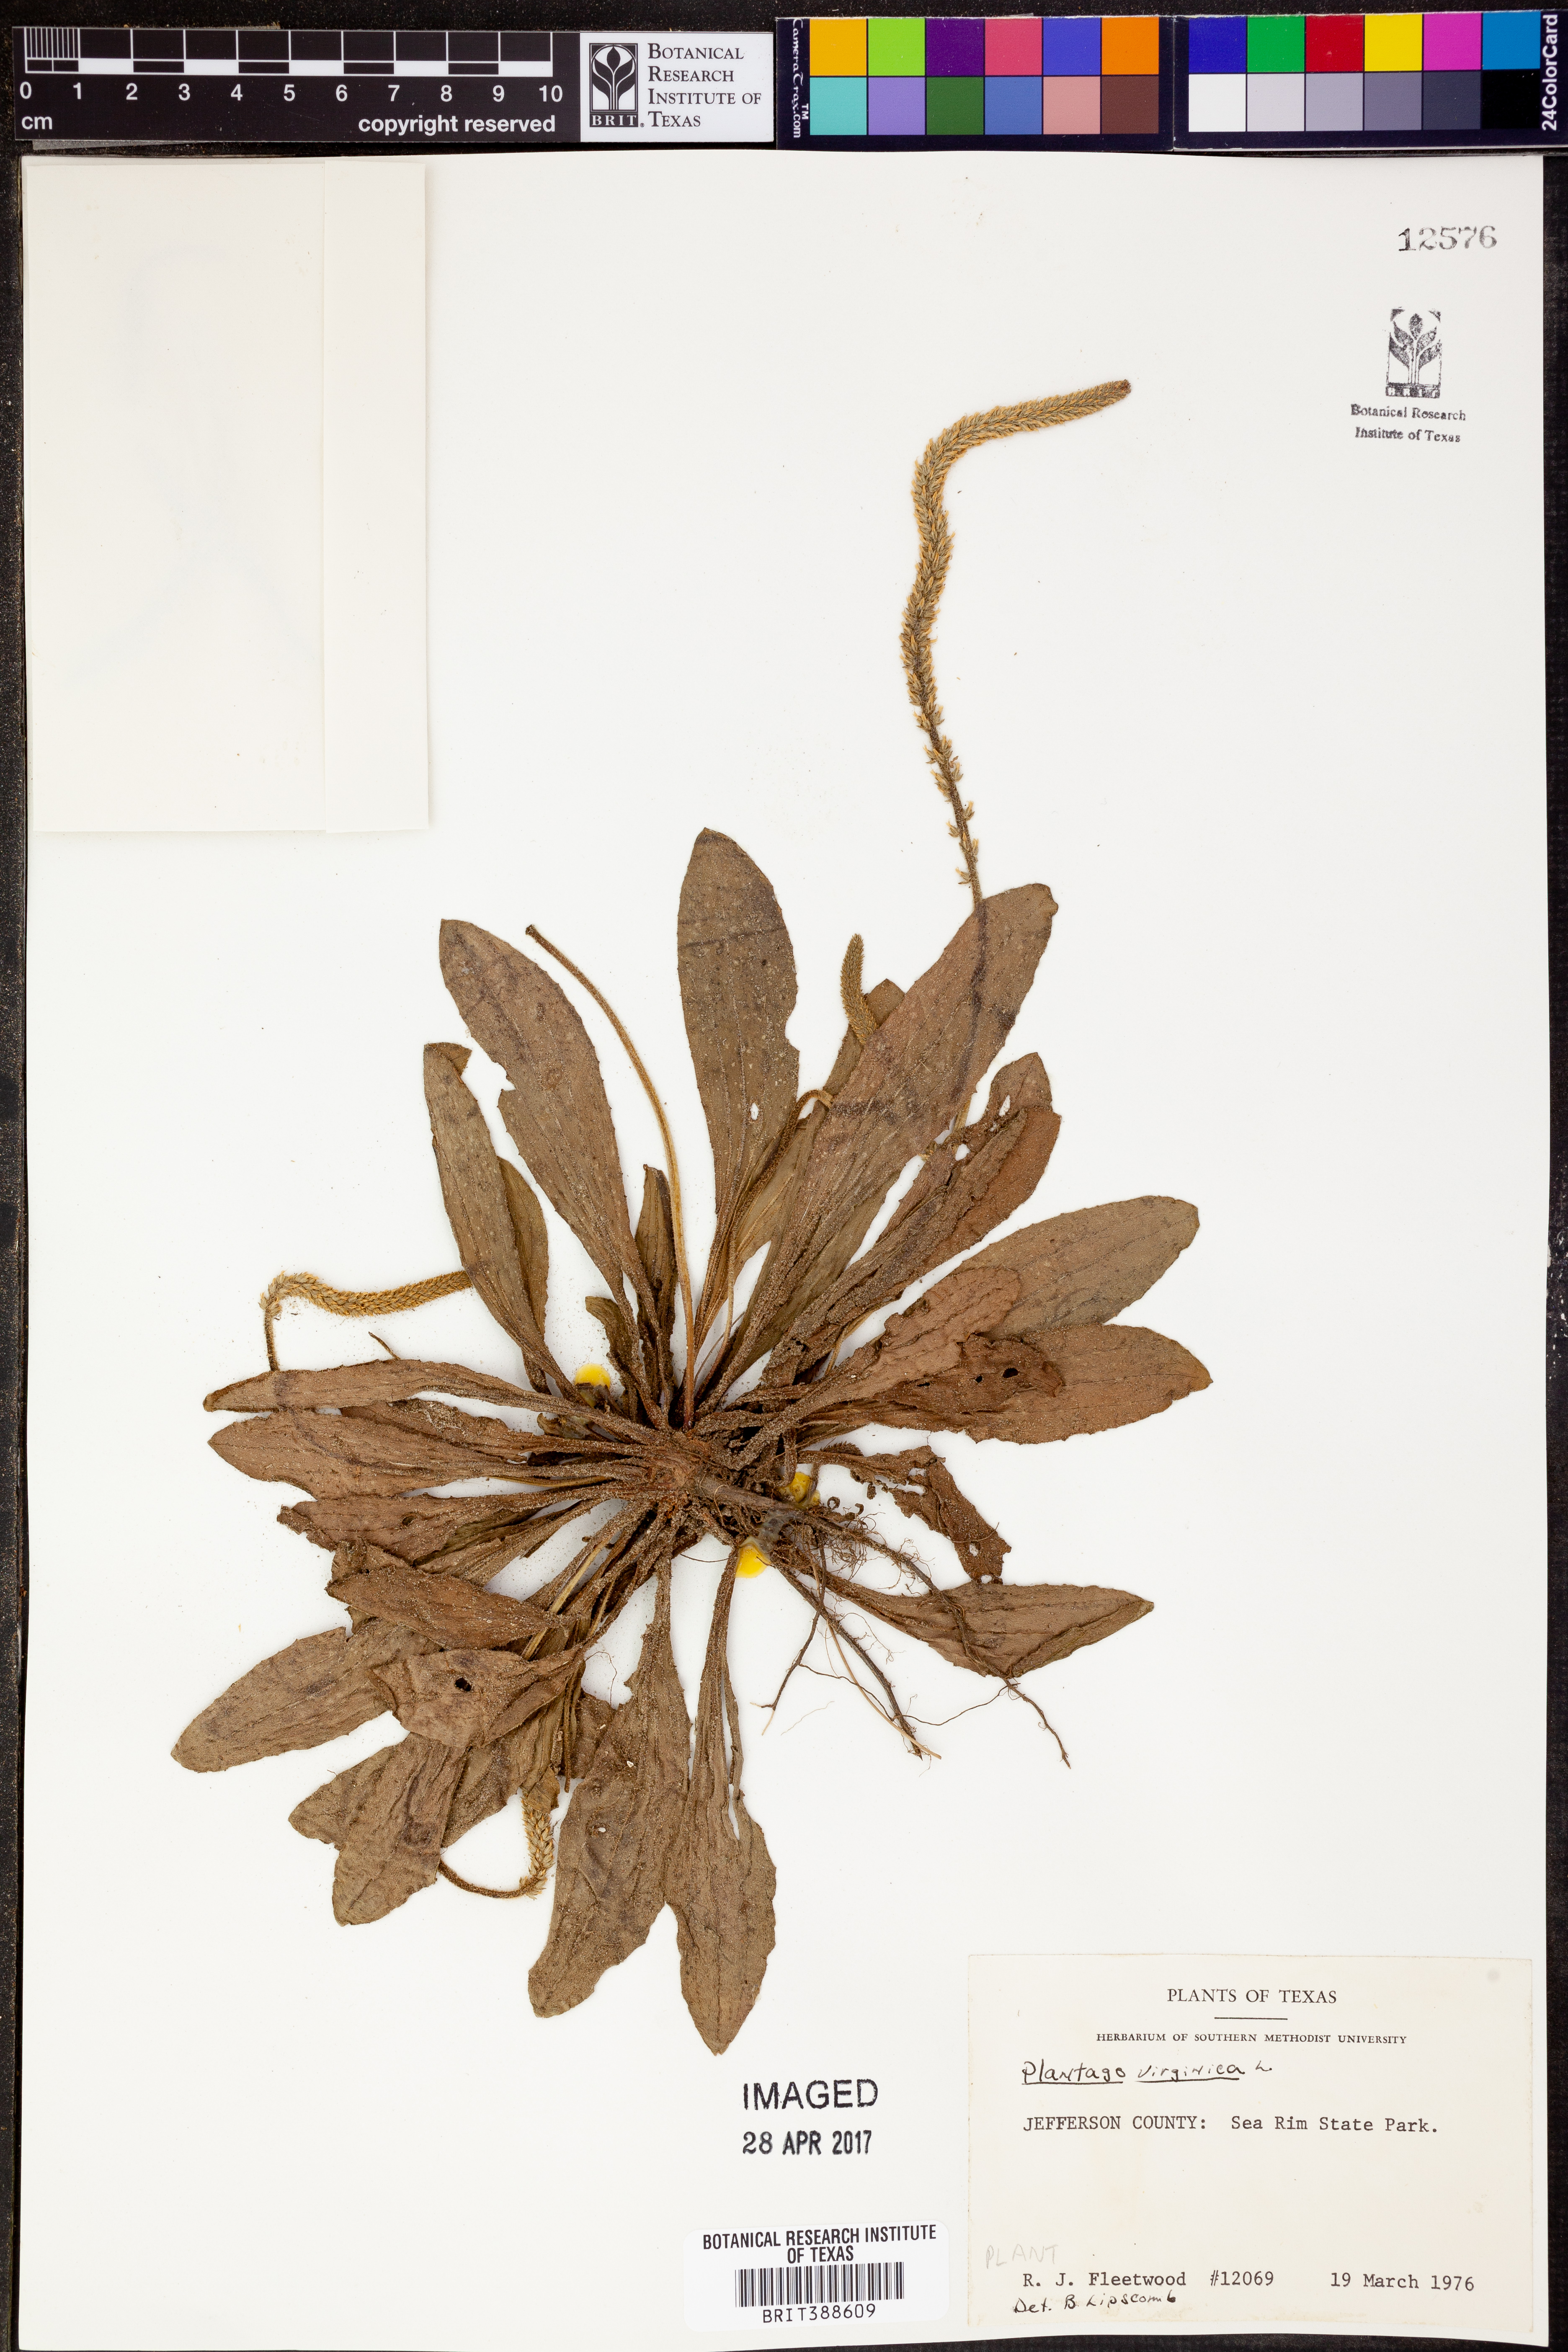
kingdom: Plantae
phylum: Tracheophyta
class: Magnoliopsida
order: Lamiales
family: Plantaginaceae
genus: Plantago
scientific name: Plantago virginica
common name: Hoary plantain
